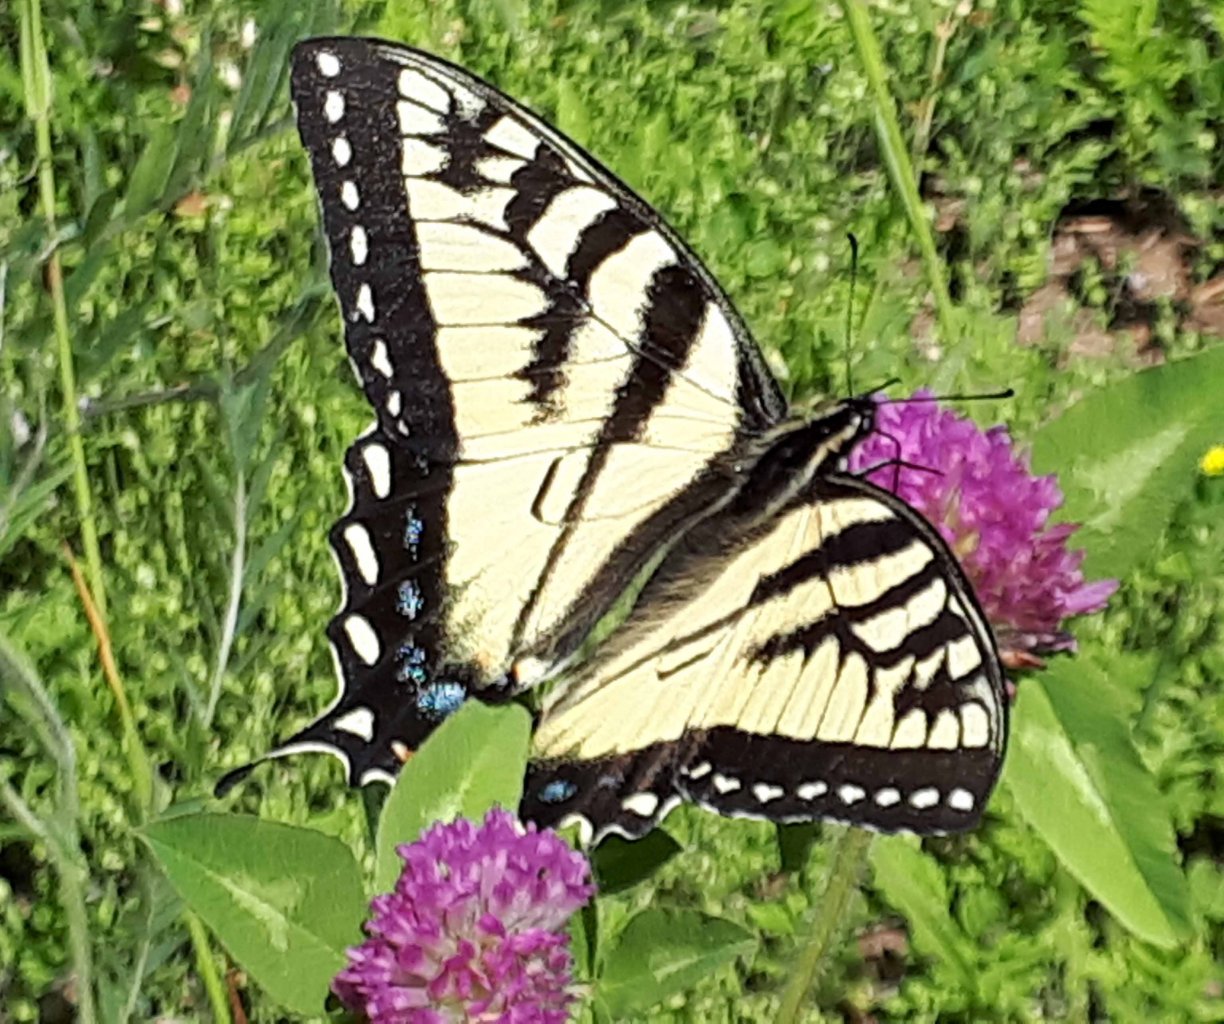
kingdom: Animalia
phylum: Arthropoda
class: Insecta
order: Lepidoptera
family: Papilionidae
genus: Pterourus
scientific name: Pterourus glaucus
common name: Eastern Tiger Swallowtail
